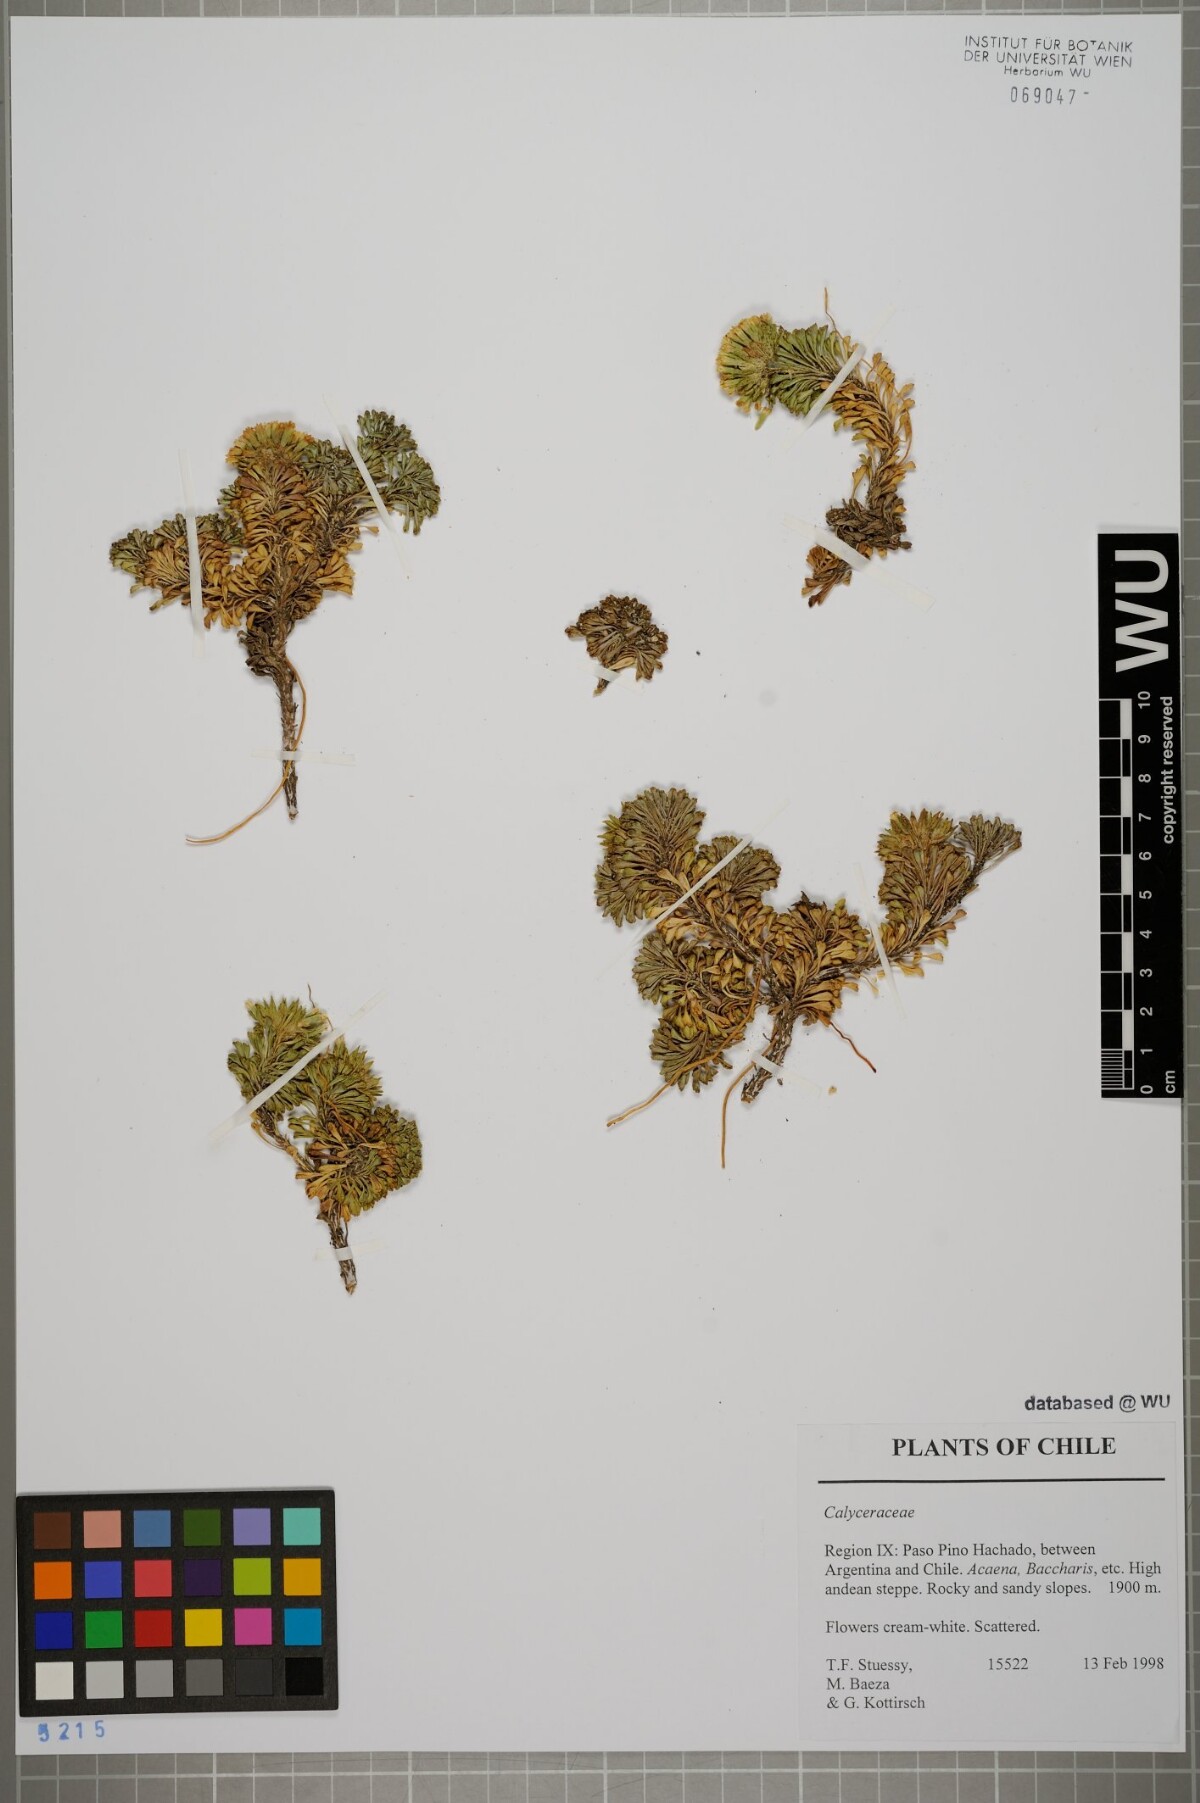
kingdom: Plantae
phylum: Tracheophyta
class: Magnoliopsida
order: Asterales
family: Calyceraceae
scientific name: Calyceraceae
